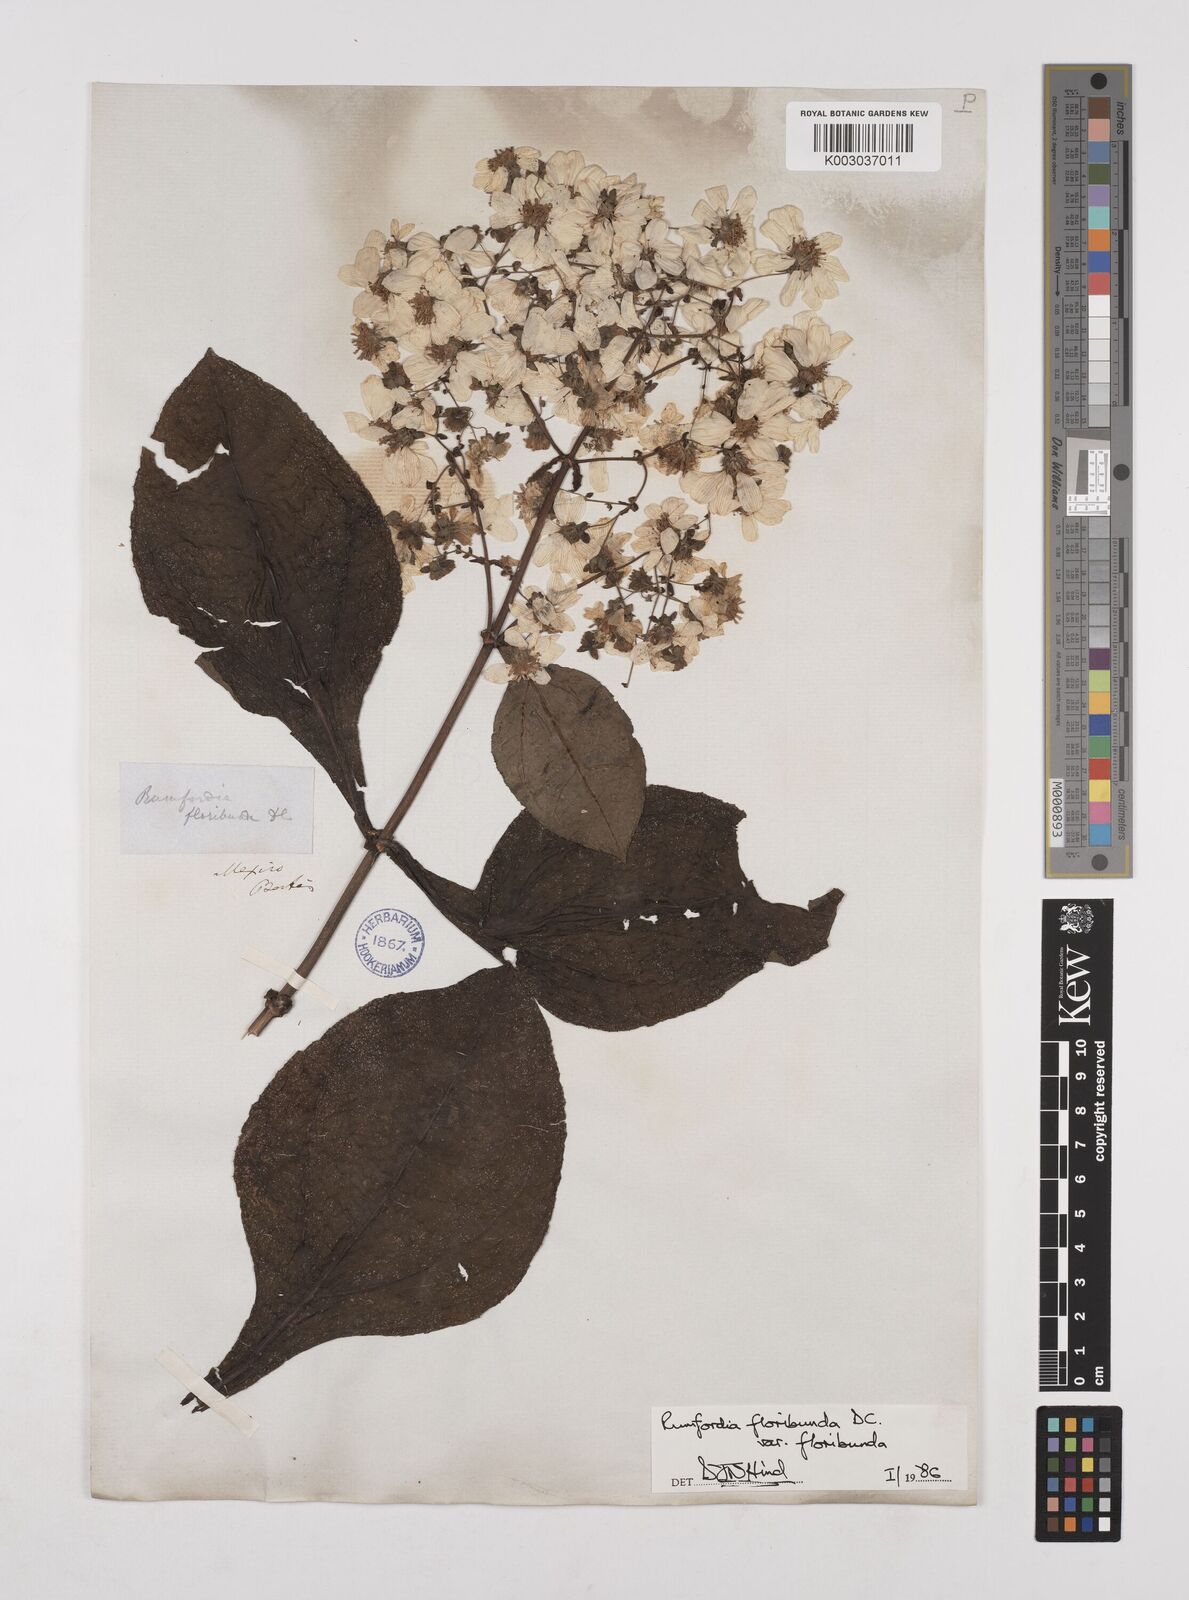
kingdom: Plantae
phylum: Tracheophyta
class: Magnoliopsida
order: Asterales
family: Asteraceae
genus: Rumfordia
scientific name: Rumfordia floribunda
